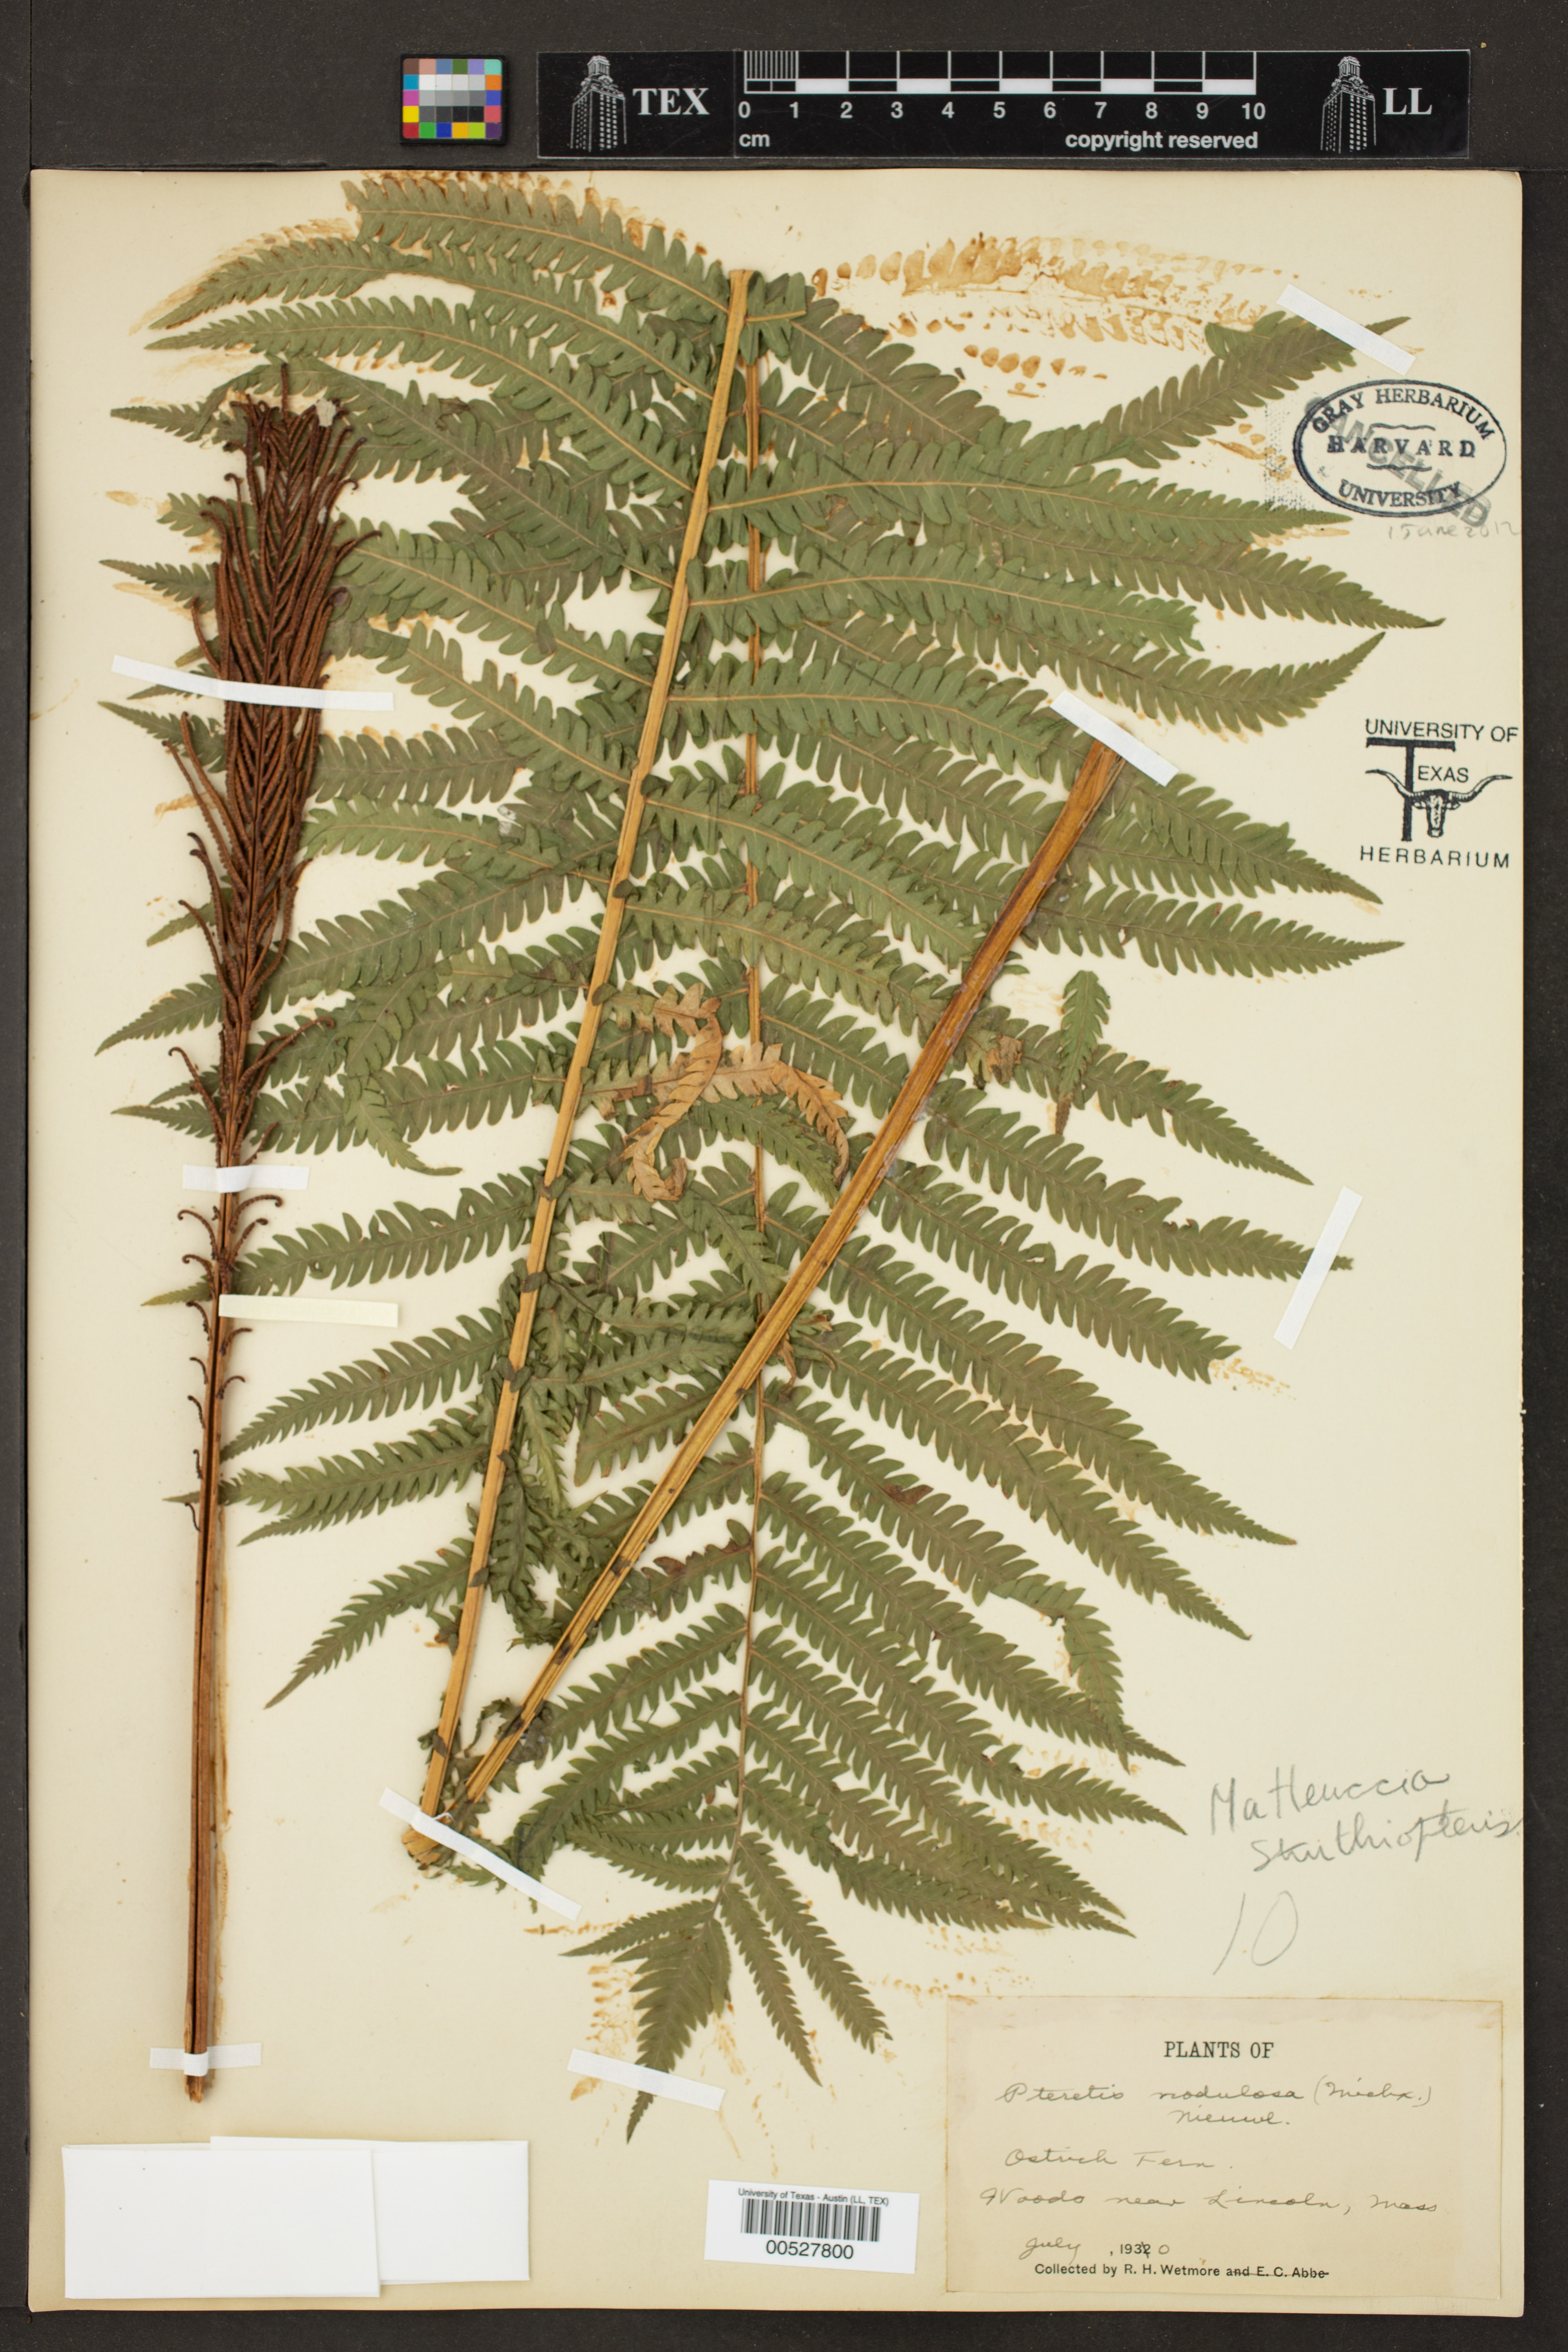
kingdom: Plantae
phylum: Tracheophyta
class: Polypodiopsida
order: Polypodiales
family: Onocleaceae
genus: Matteuccia
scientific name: Matteuccia struthiopteris
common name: Ostrich fern
